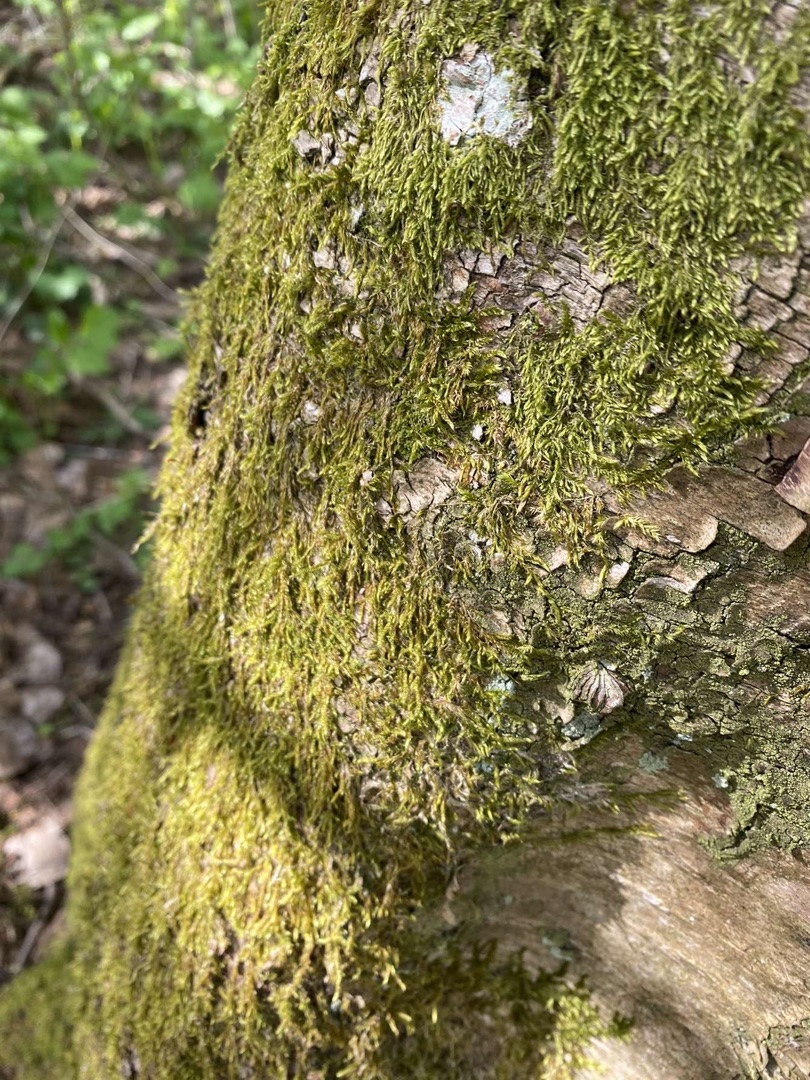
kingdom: Plantae
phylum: Bryophyta
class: Bryopsida
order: Hypnales
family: Hypnaceae
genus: Hypnum
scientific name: Hypnum
